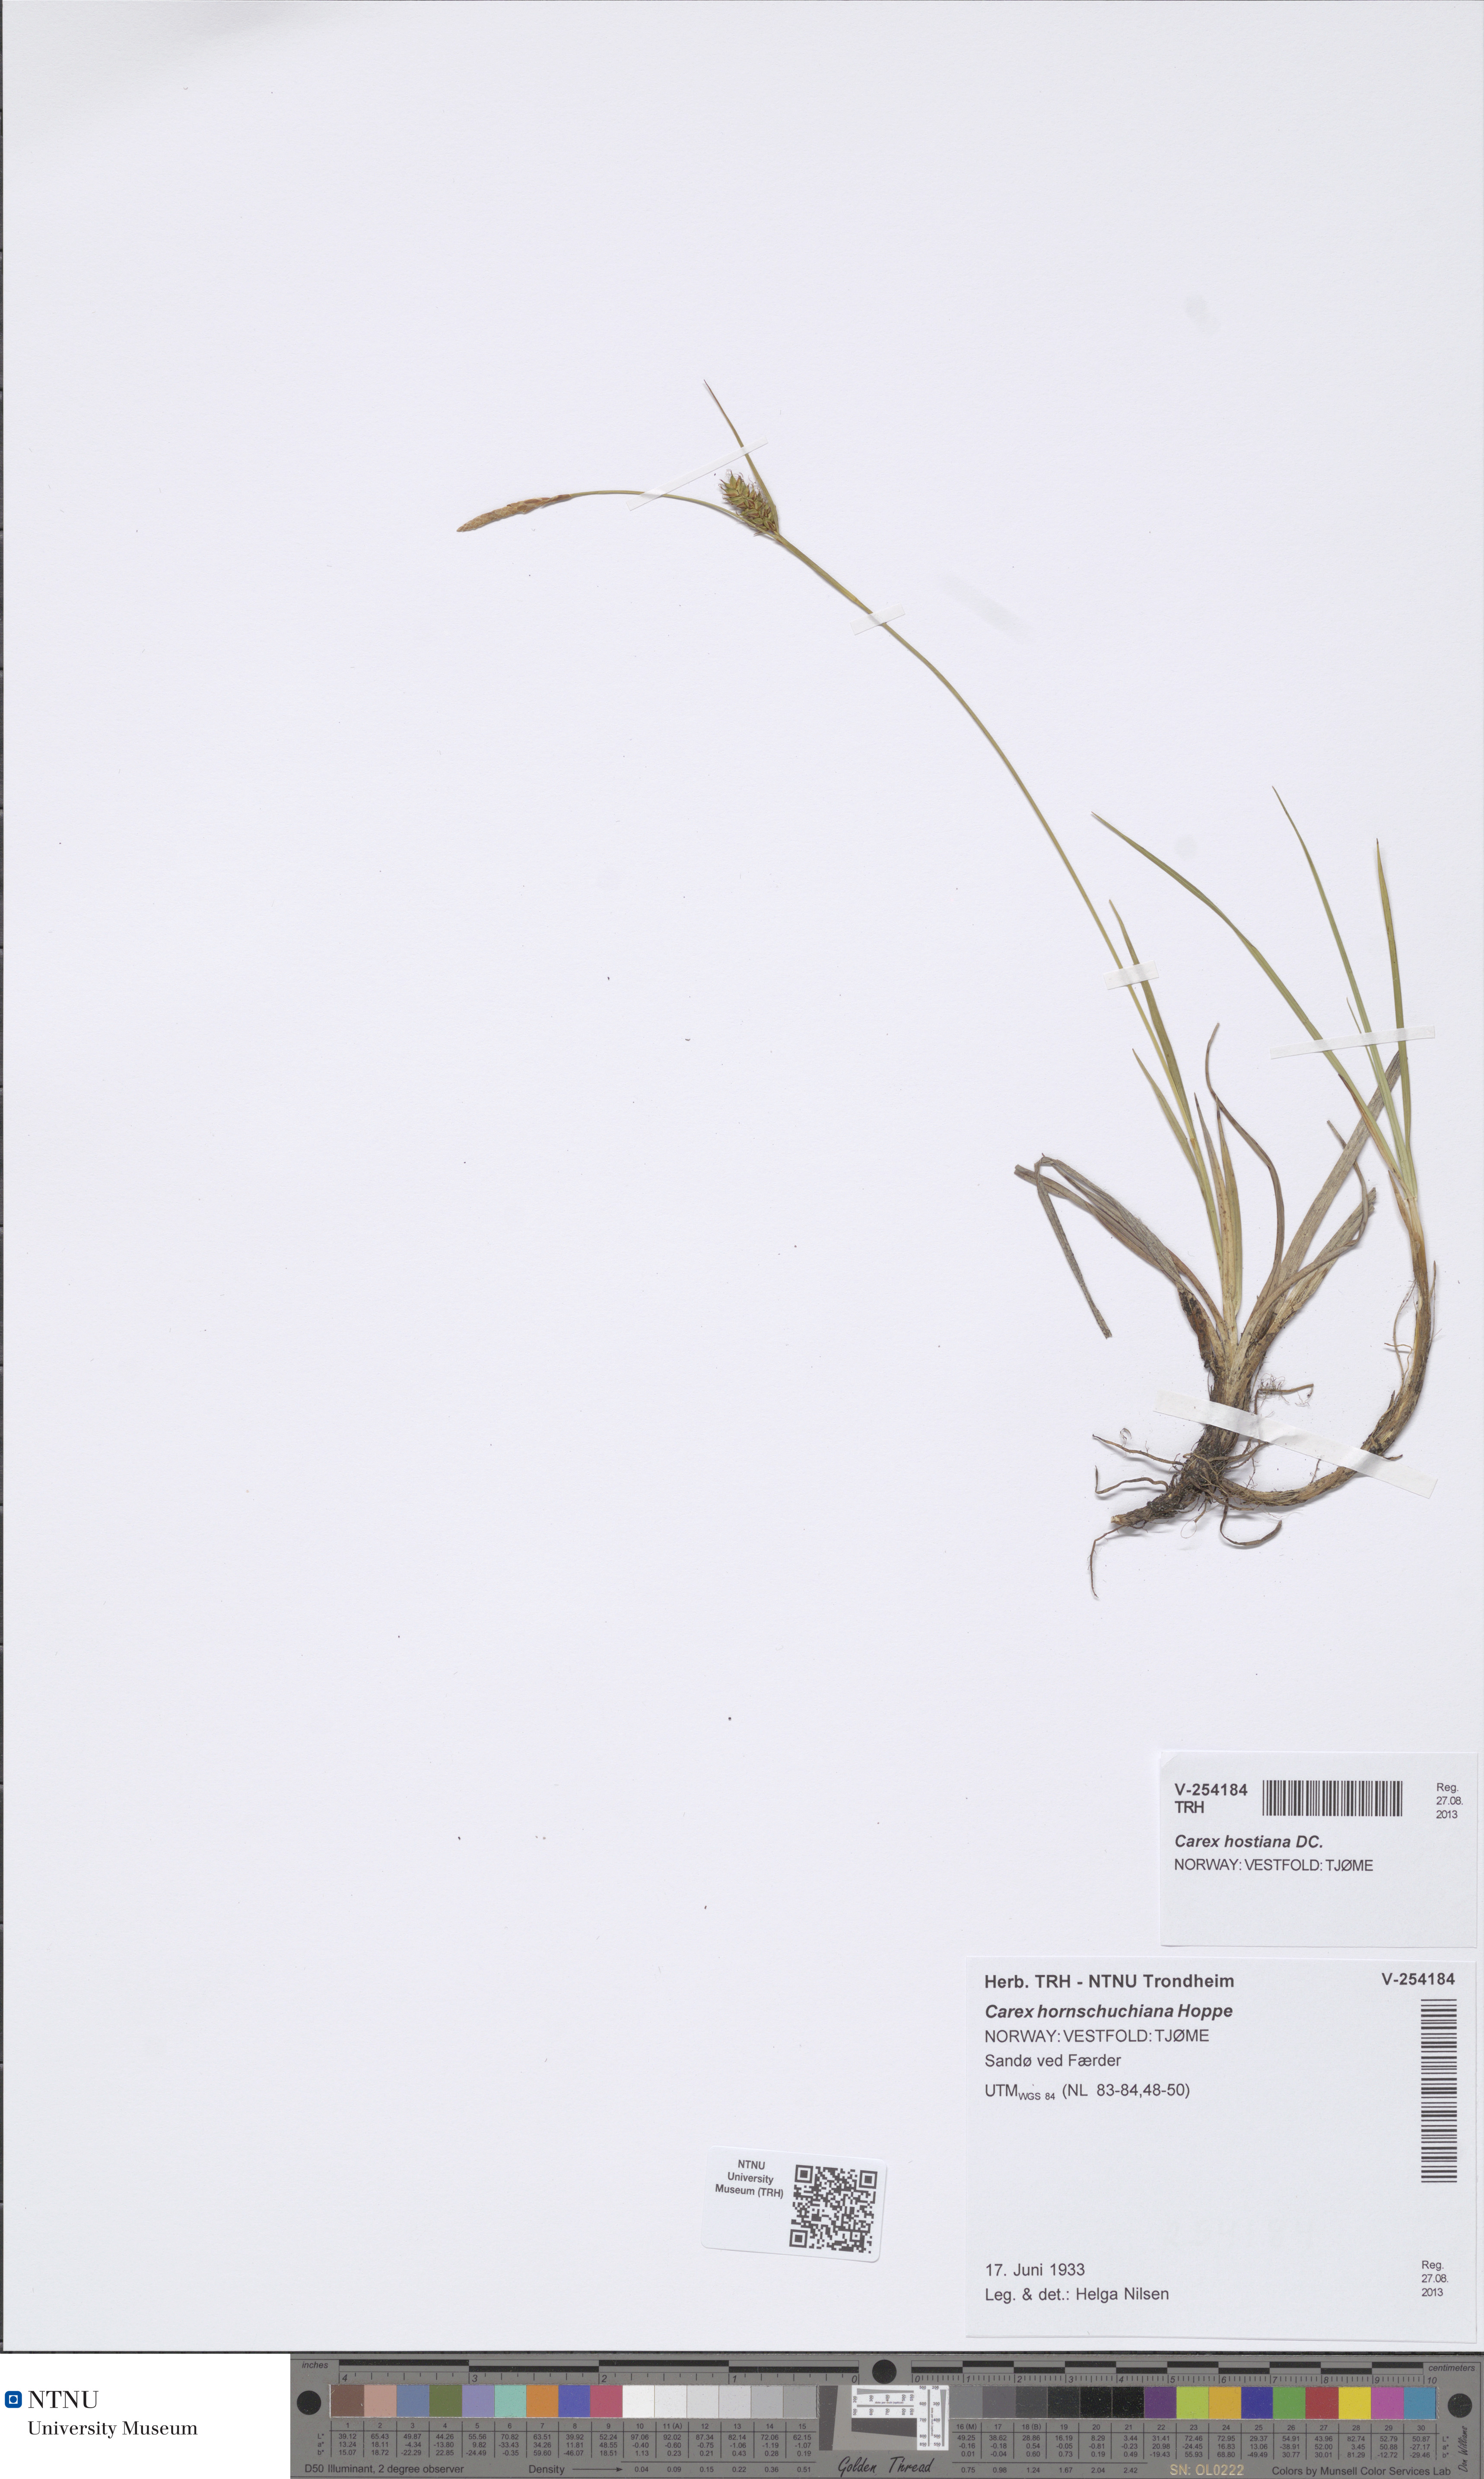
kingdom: Plantae
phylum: Tracheophyta
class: Liliopsida
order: Poales
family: Cyperaceae
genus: Carex
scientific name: Carex hostiana
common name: Tawny sedge
